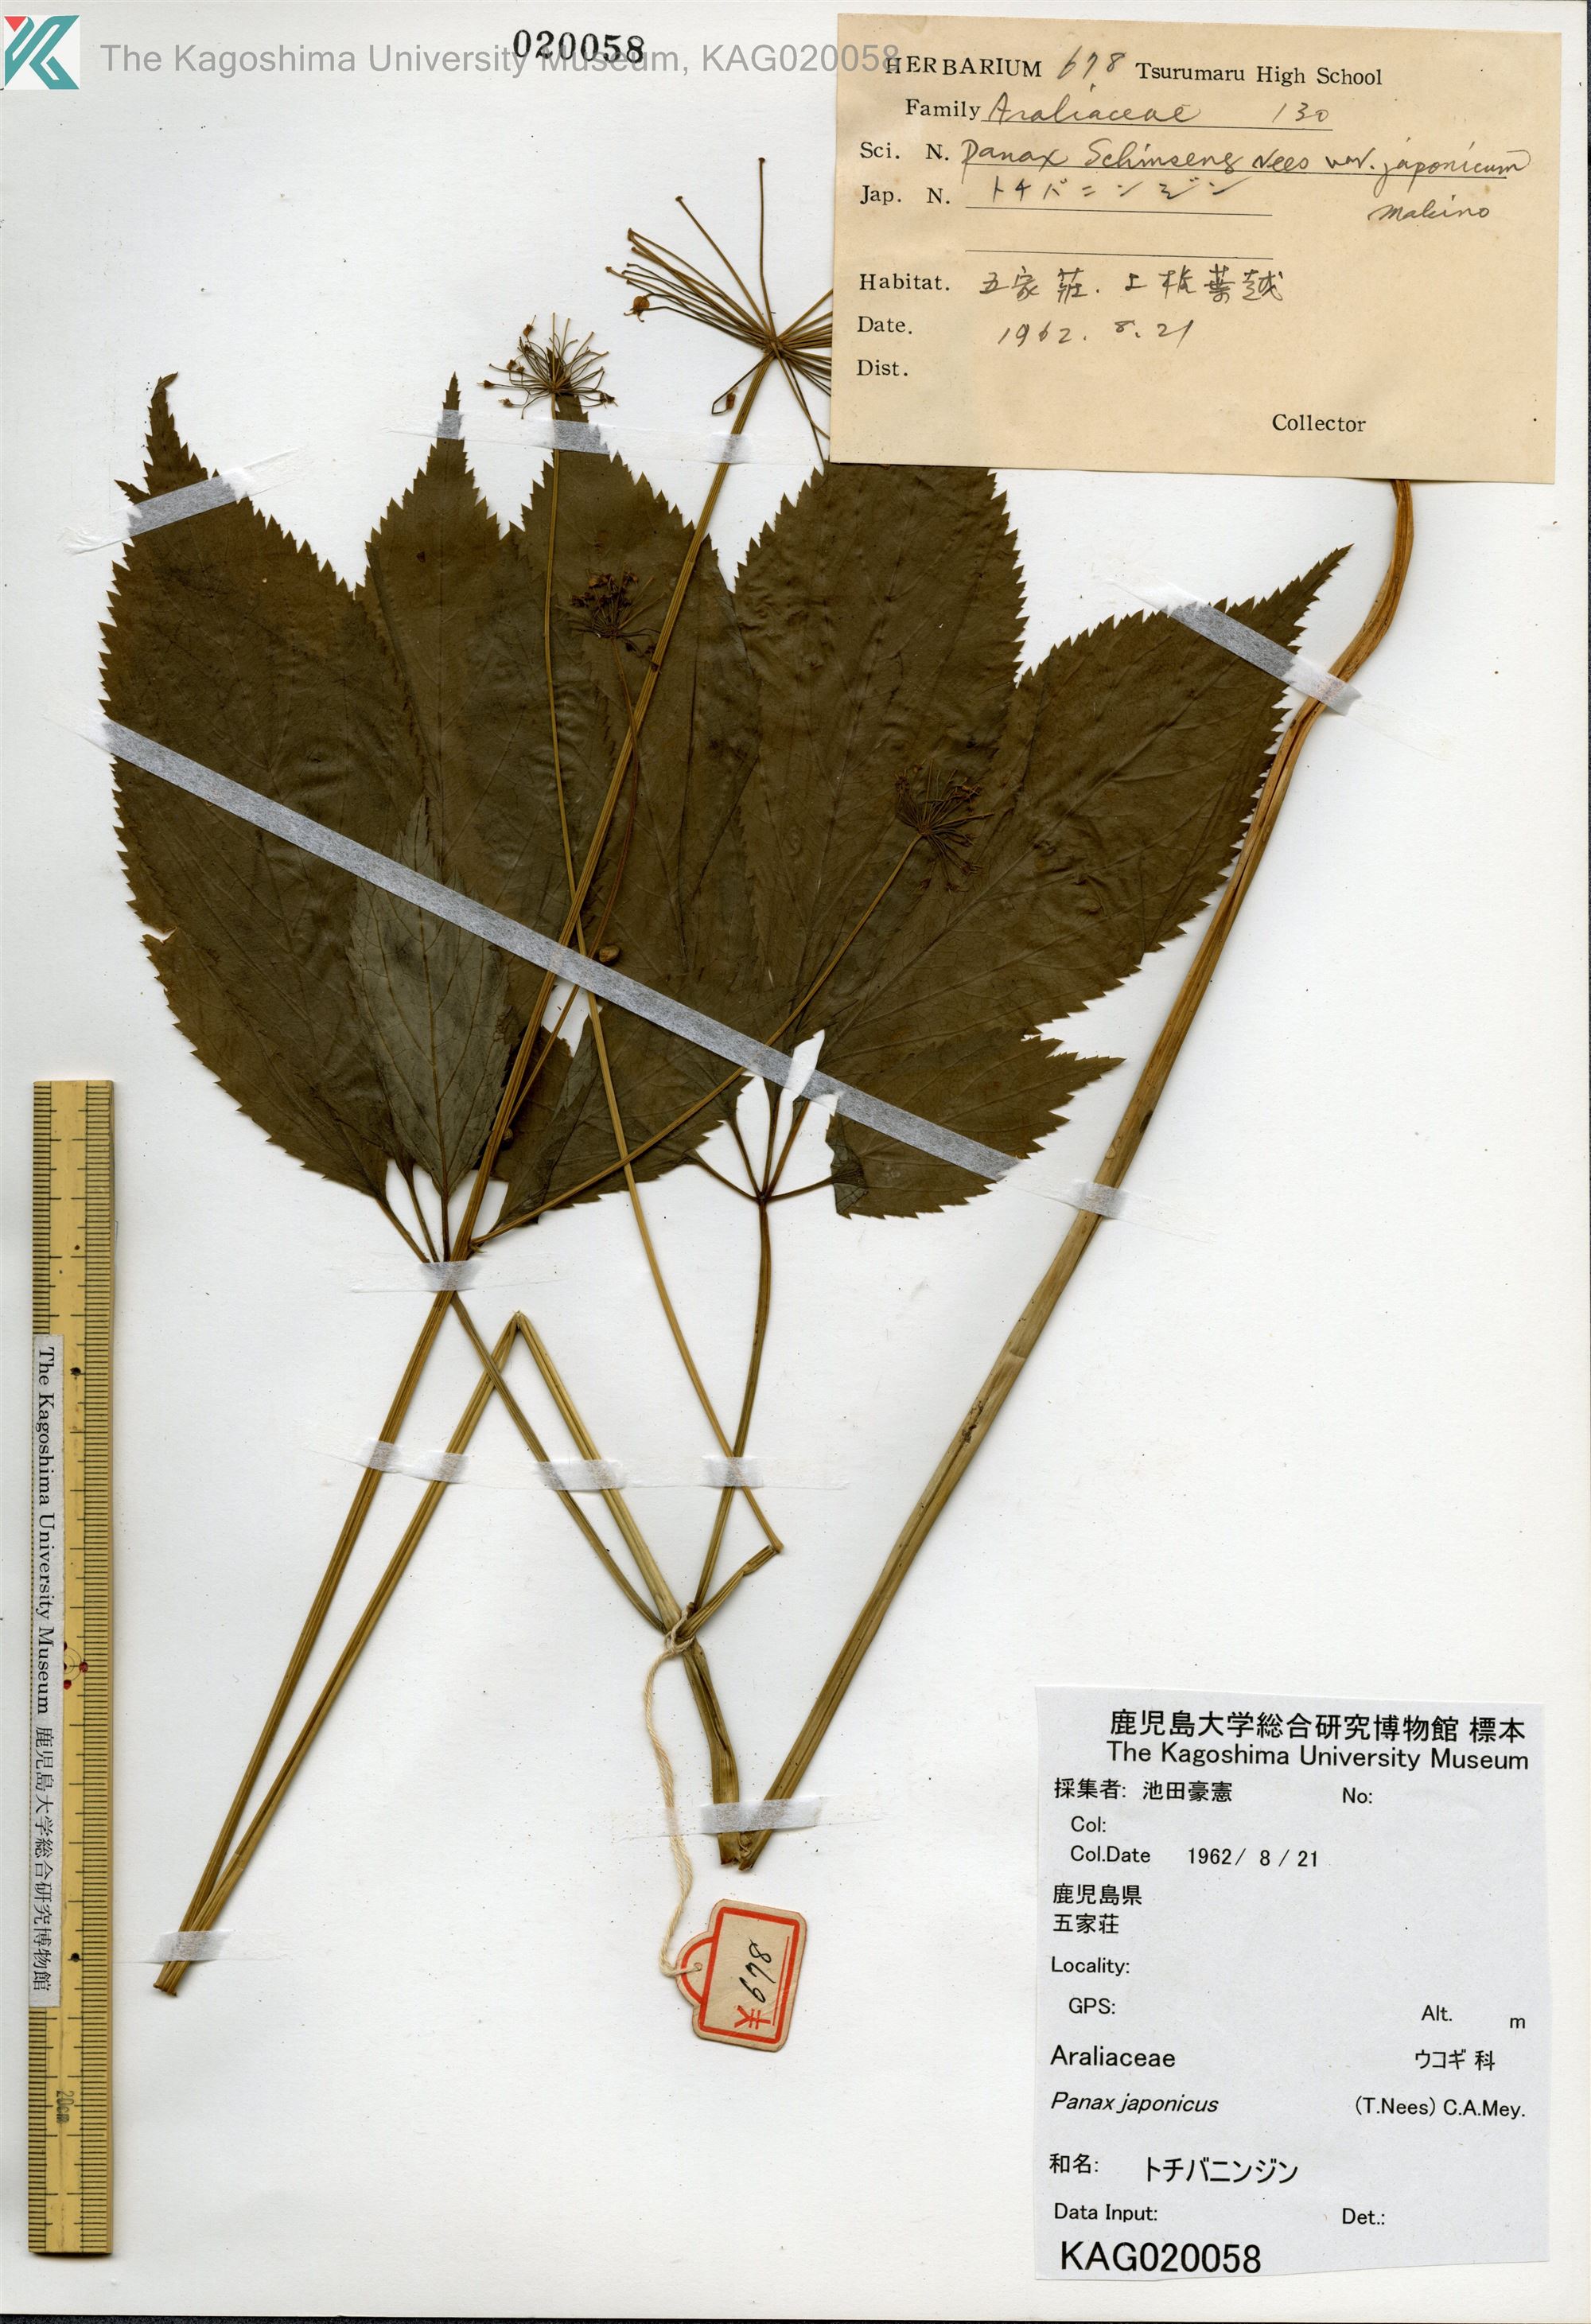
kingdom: Plantae
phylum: Tracheophyta
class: Magnoliopsida
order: Apiales
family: Araliaceae
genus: Panax
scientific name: Panax japonicus
